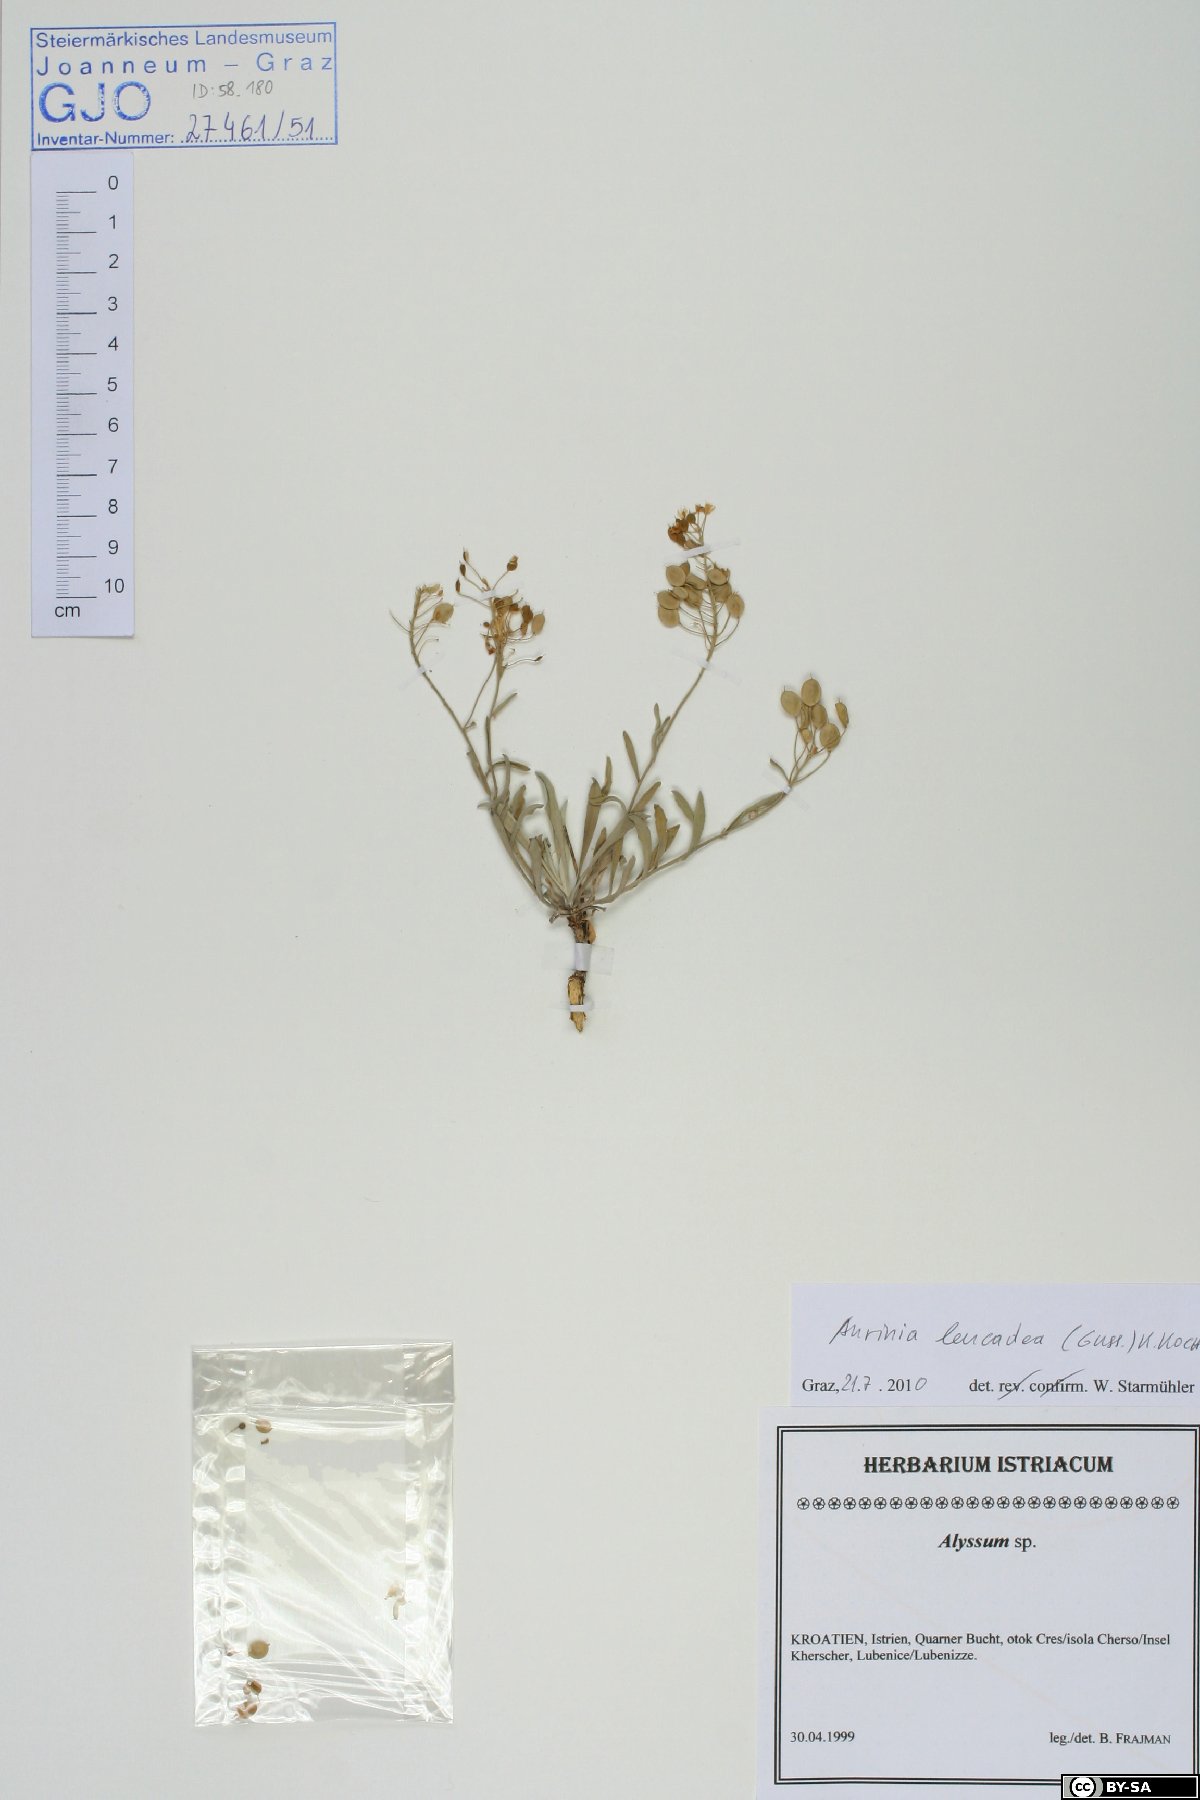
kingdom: Plantae
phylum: Tracheophyta
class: Magnoliopsida
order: Brassicales
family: Brassicaceae
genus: Aurinia
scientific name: Aurinia leucadea
